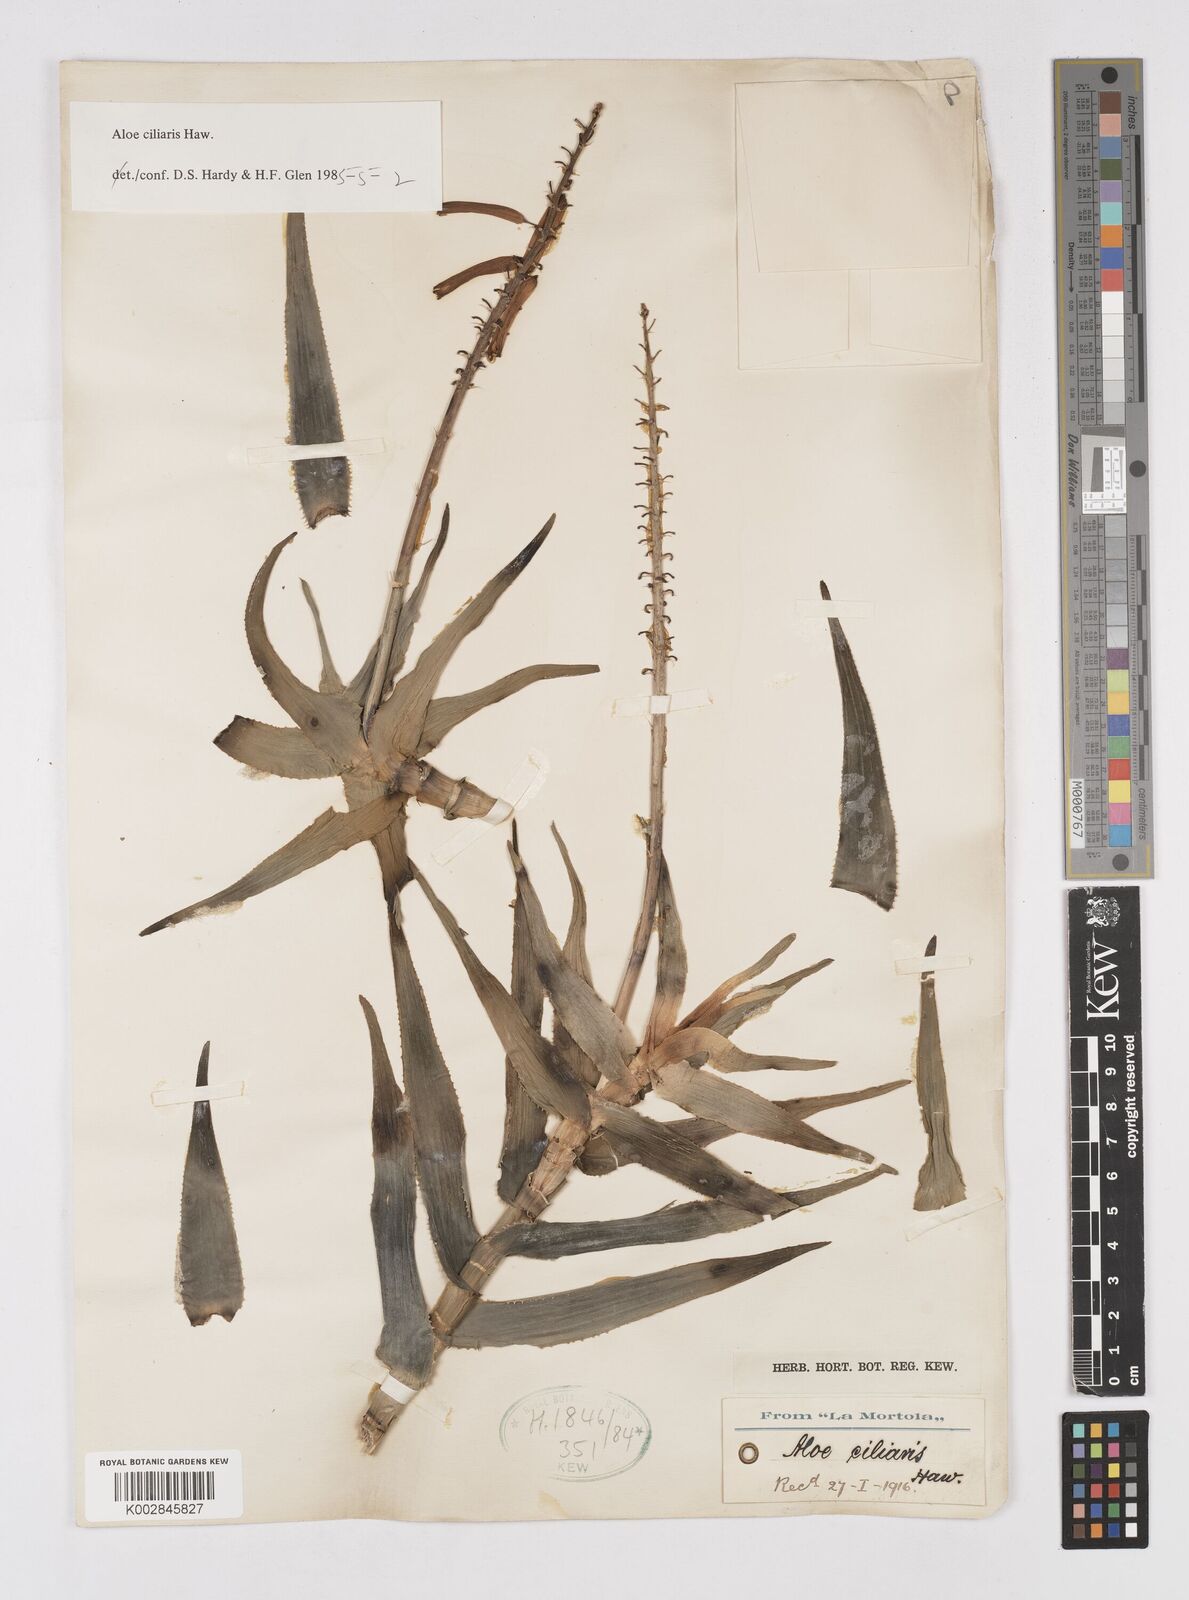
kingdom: Plantae
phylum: Tracheophyta
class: Liliopsida
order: Asparagales
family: Asphodelaceae
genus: Aloiampelos
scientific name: Aloiampelos ciliaris
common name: Climbing aloe
